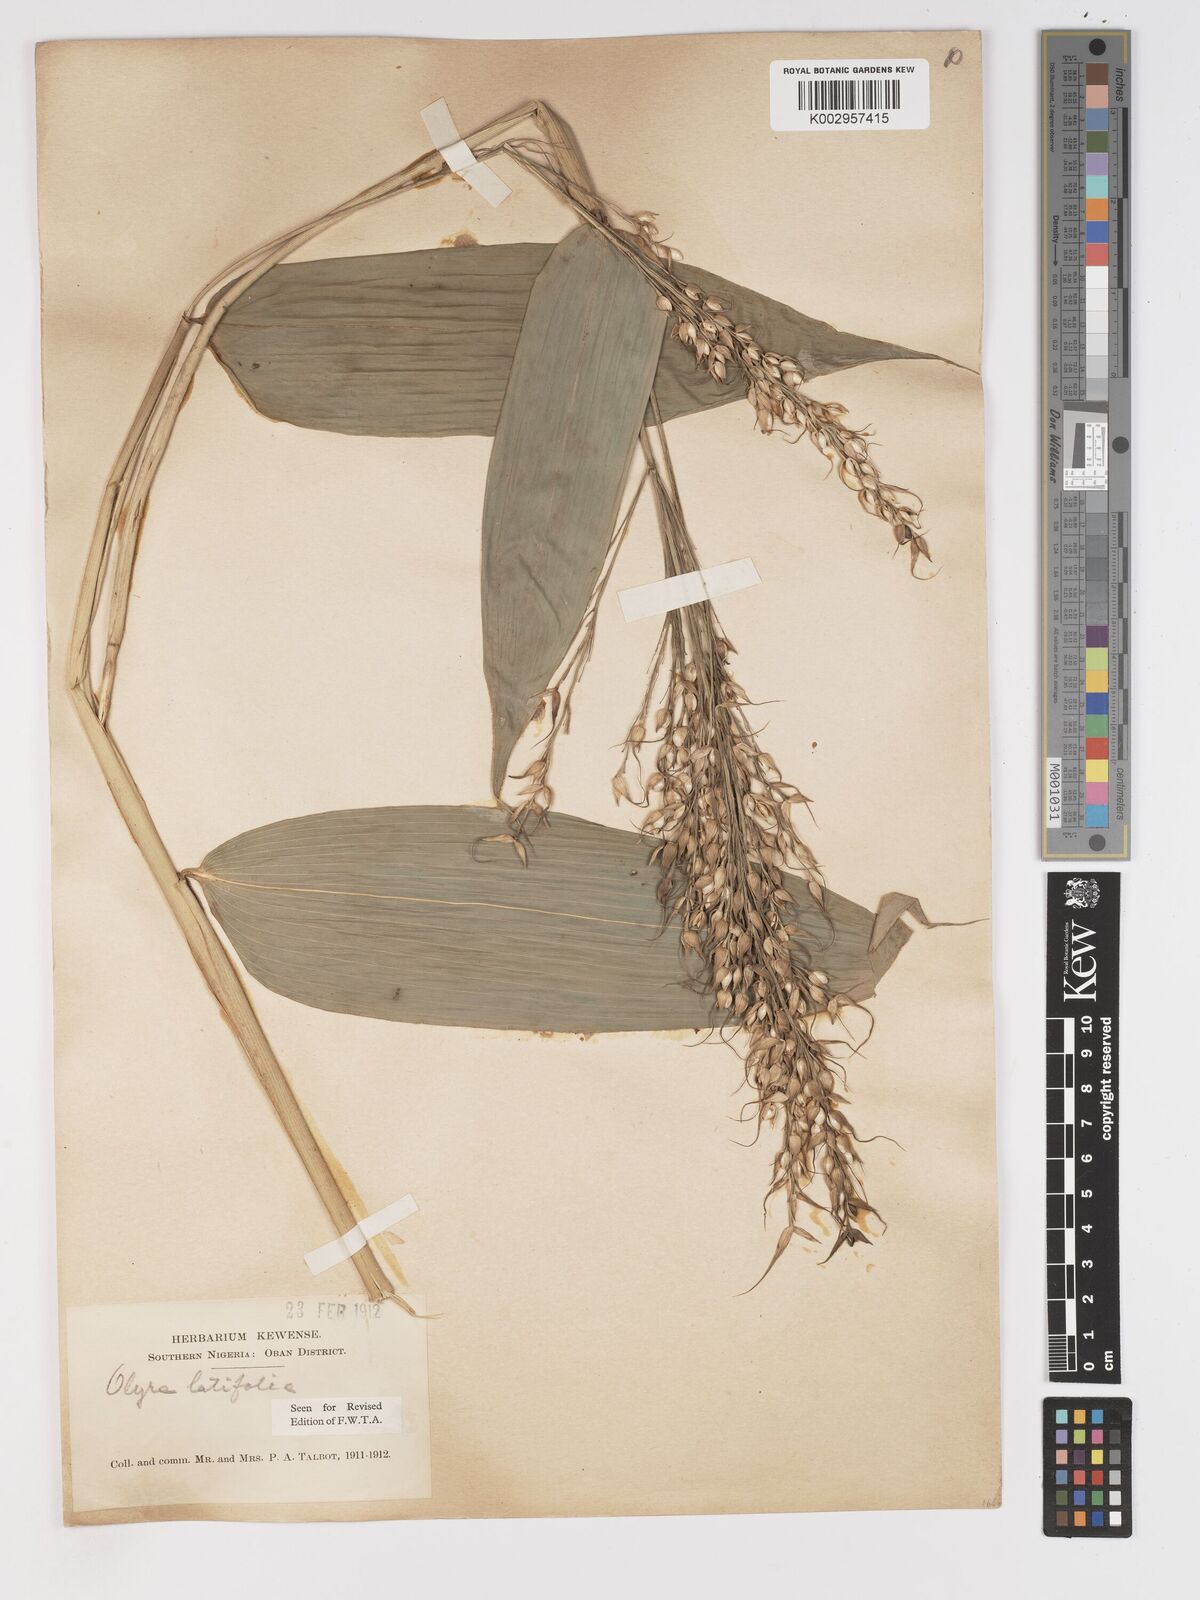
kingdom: Plantae
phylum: Tracheophyta
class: Liliopsida
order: Poales
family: Poaceae
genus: Olyra
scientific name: Olyra latifolia
